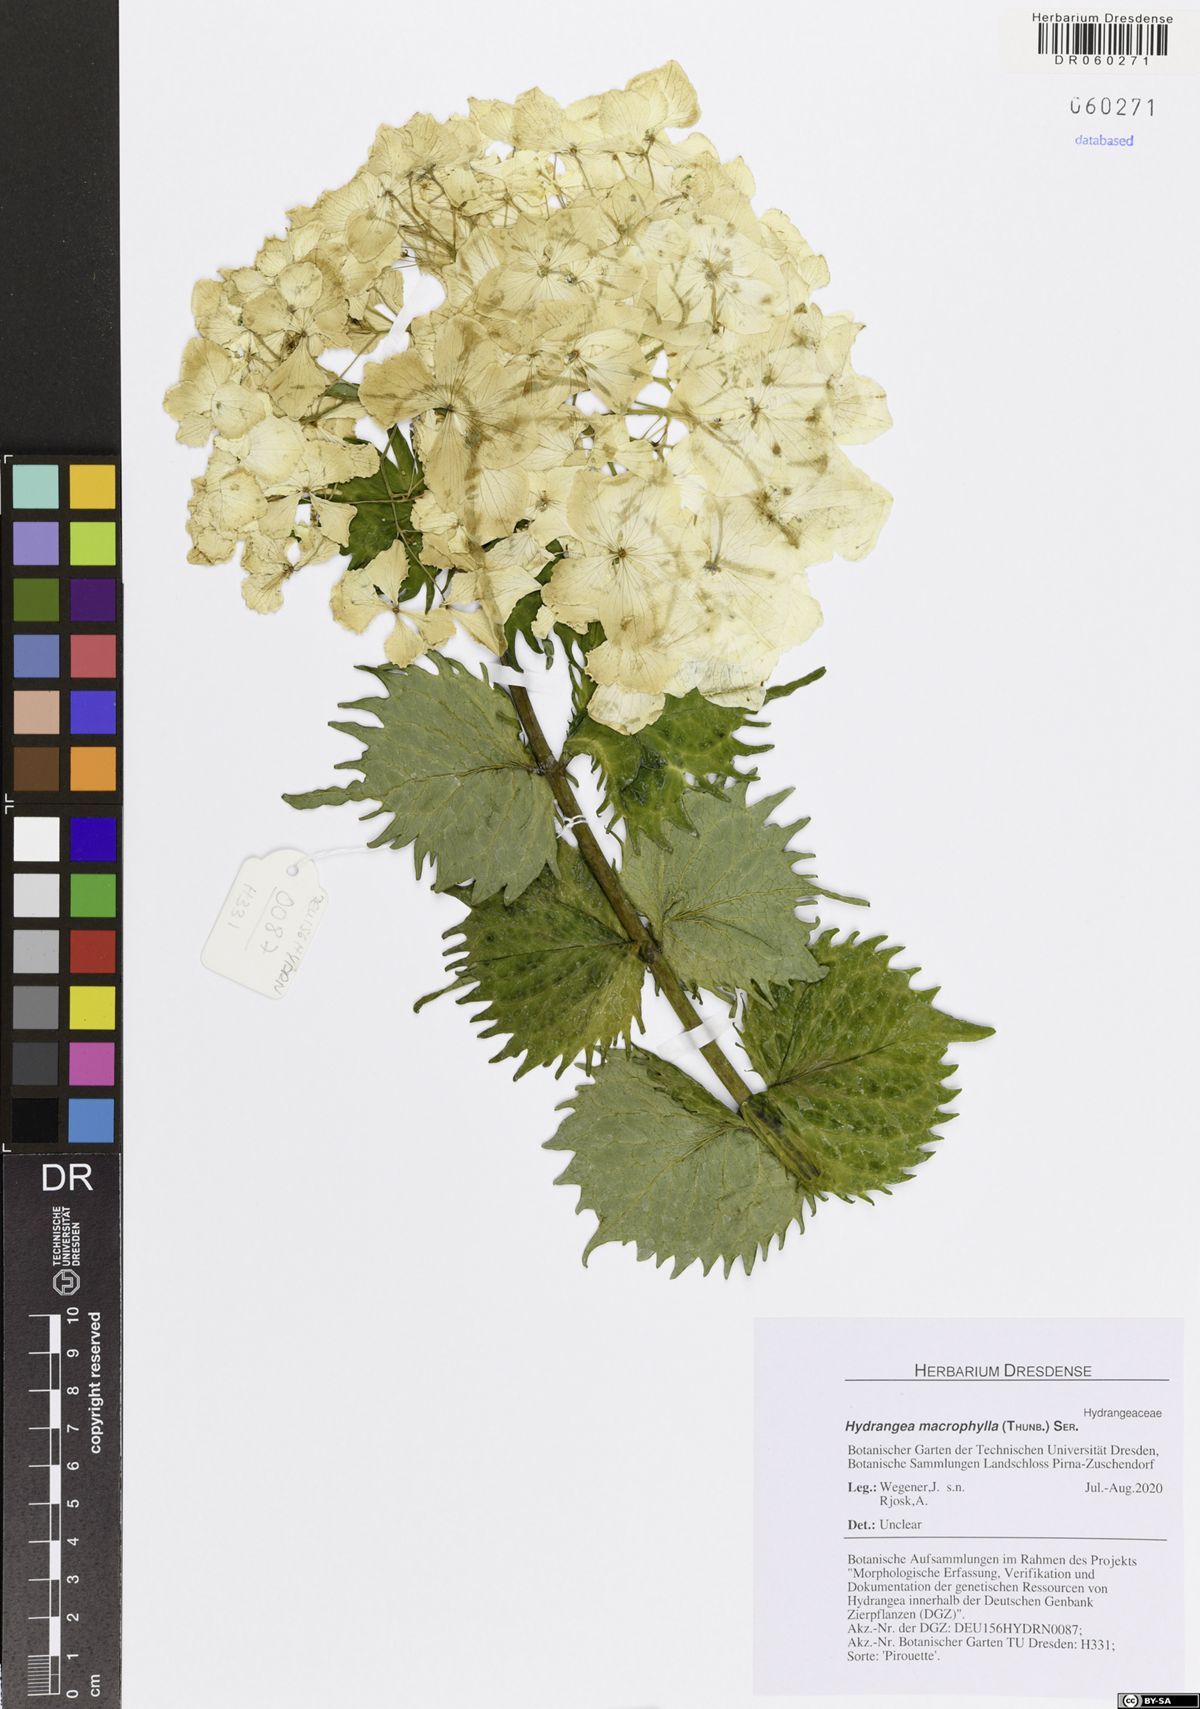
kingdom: Plantae
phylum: Tracheophyta
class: Magnoliopsida
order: Cornales
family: Hydrangeaceae
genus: Hydrangea
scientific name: Hydrangea macrophylla
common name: Hydrangea
